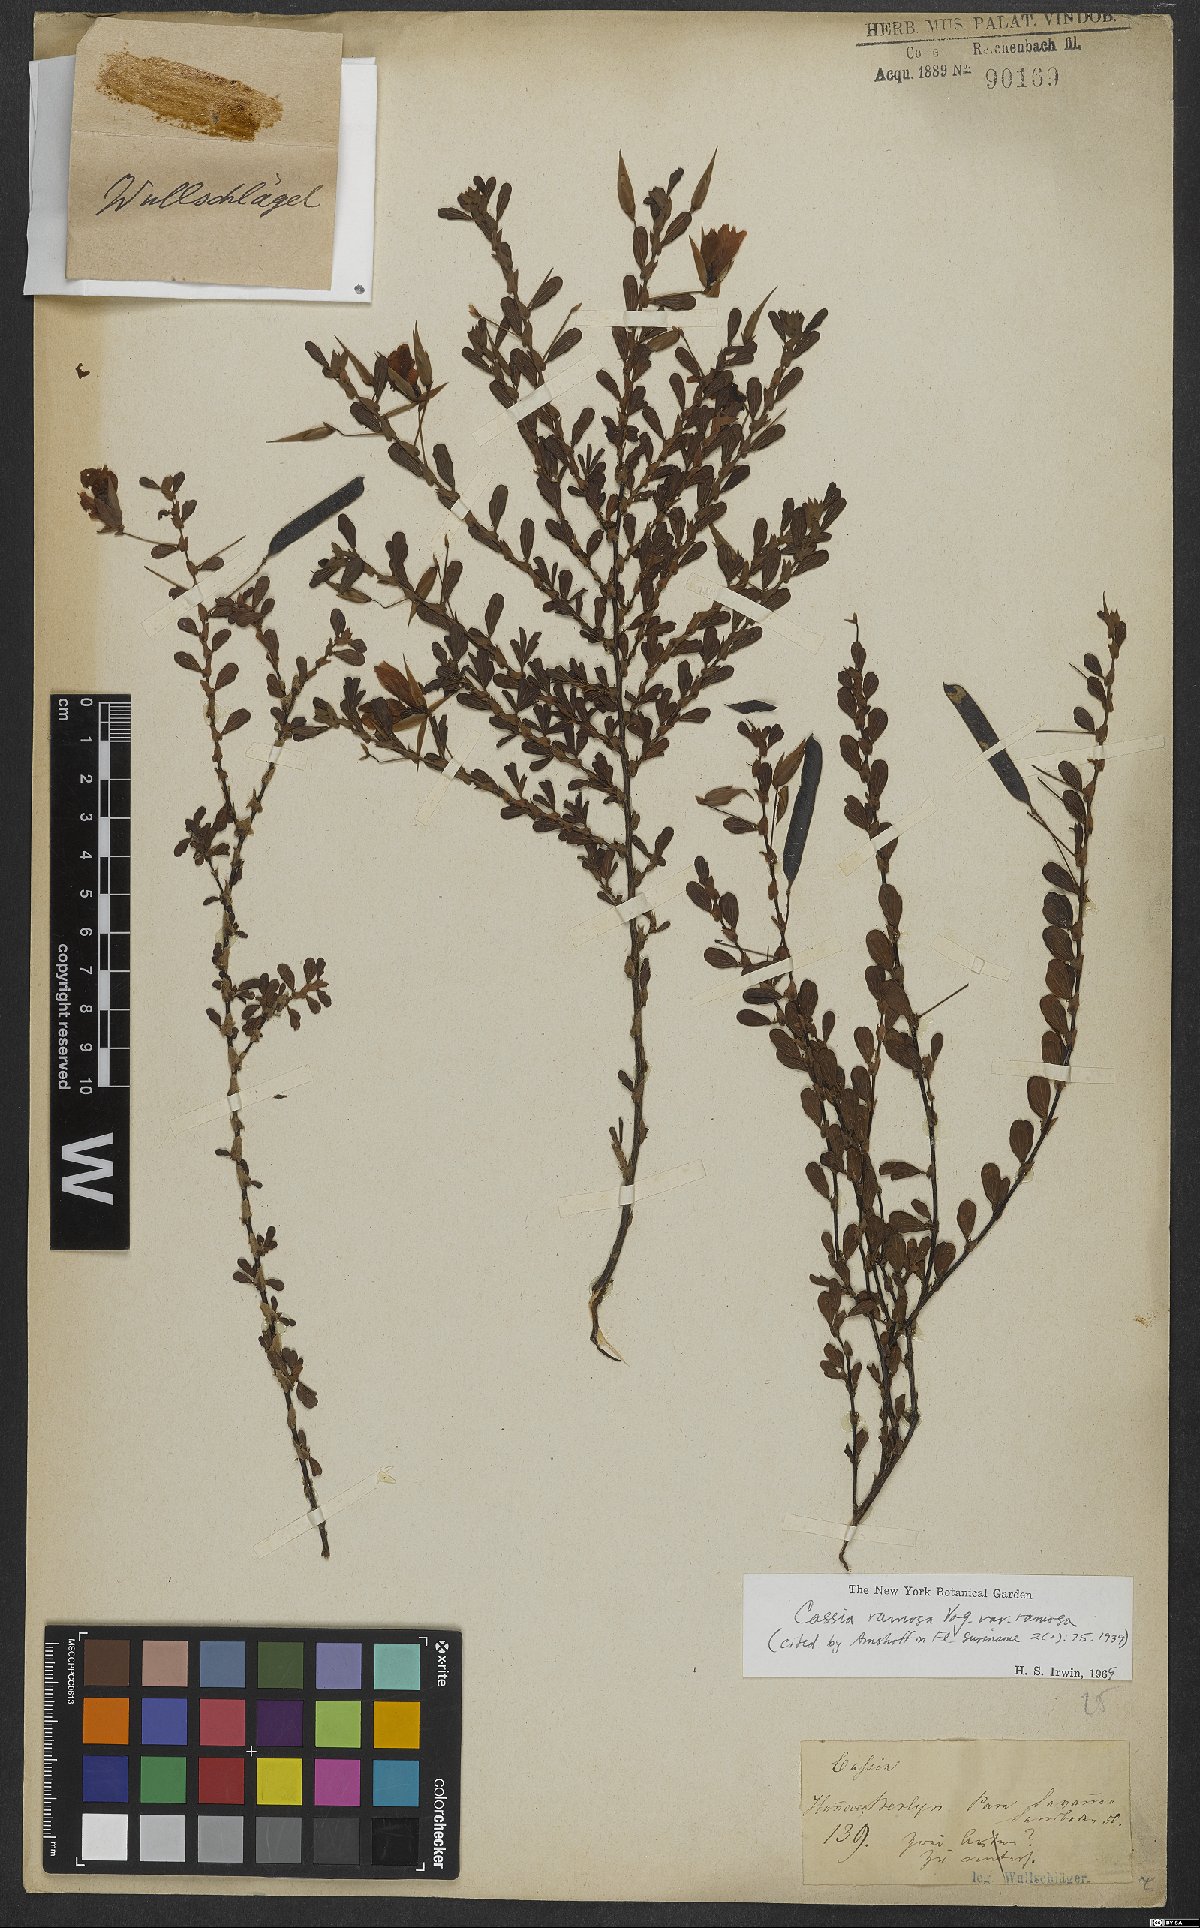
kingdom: Plantae
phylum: Tracheophyta
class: Magnoliopsida
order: Fabales
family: Fabaceae
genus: Chamaecrista
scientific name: Chamaecrista ensiformis
